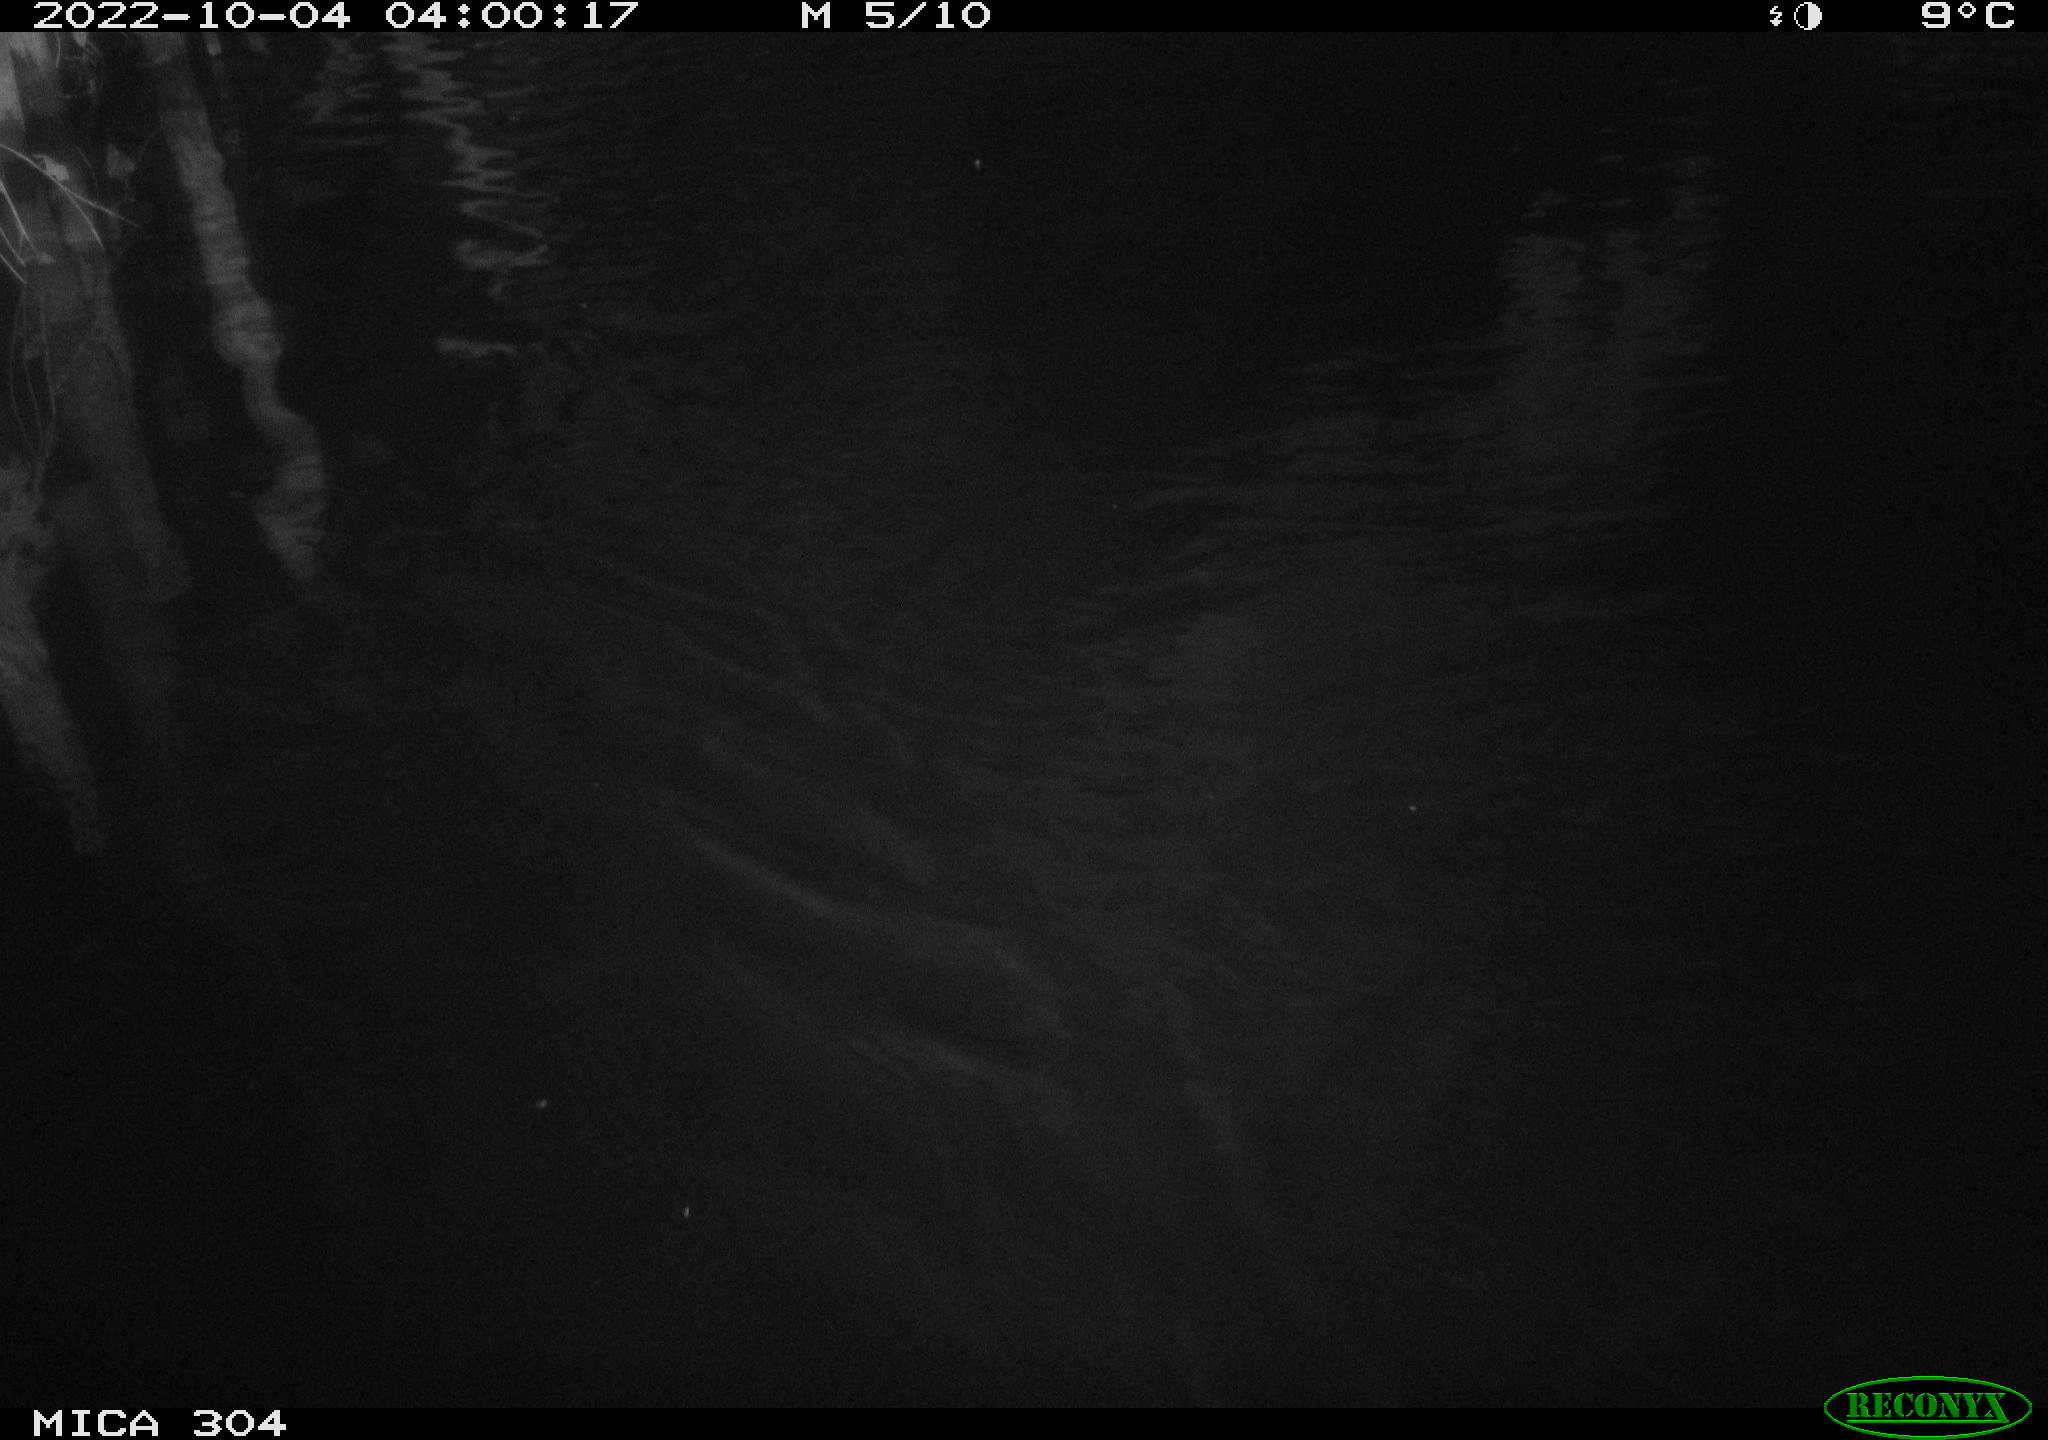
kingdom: Animalia
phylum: Chordata
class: Mammalia
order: Rodentia
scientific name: Rodentia
